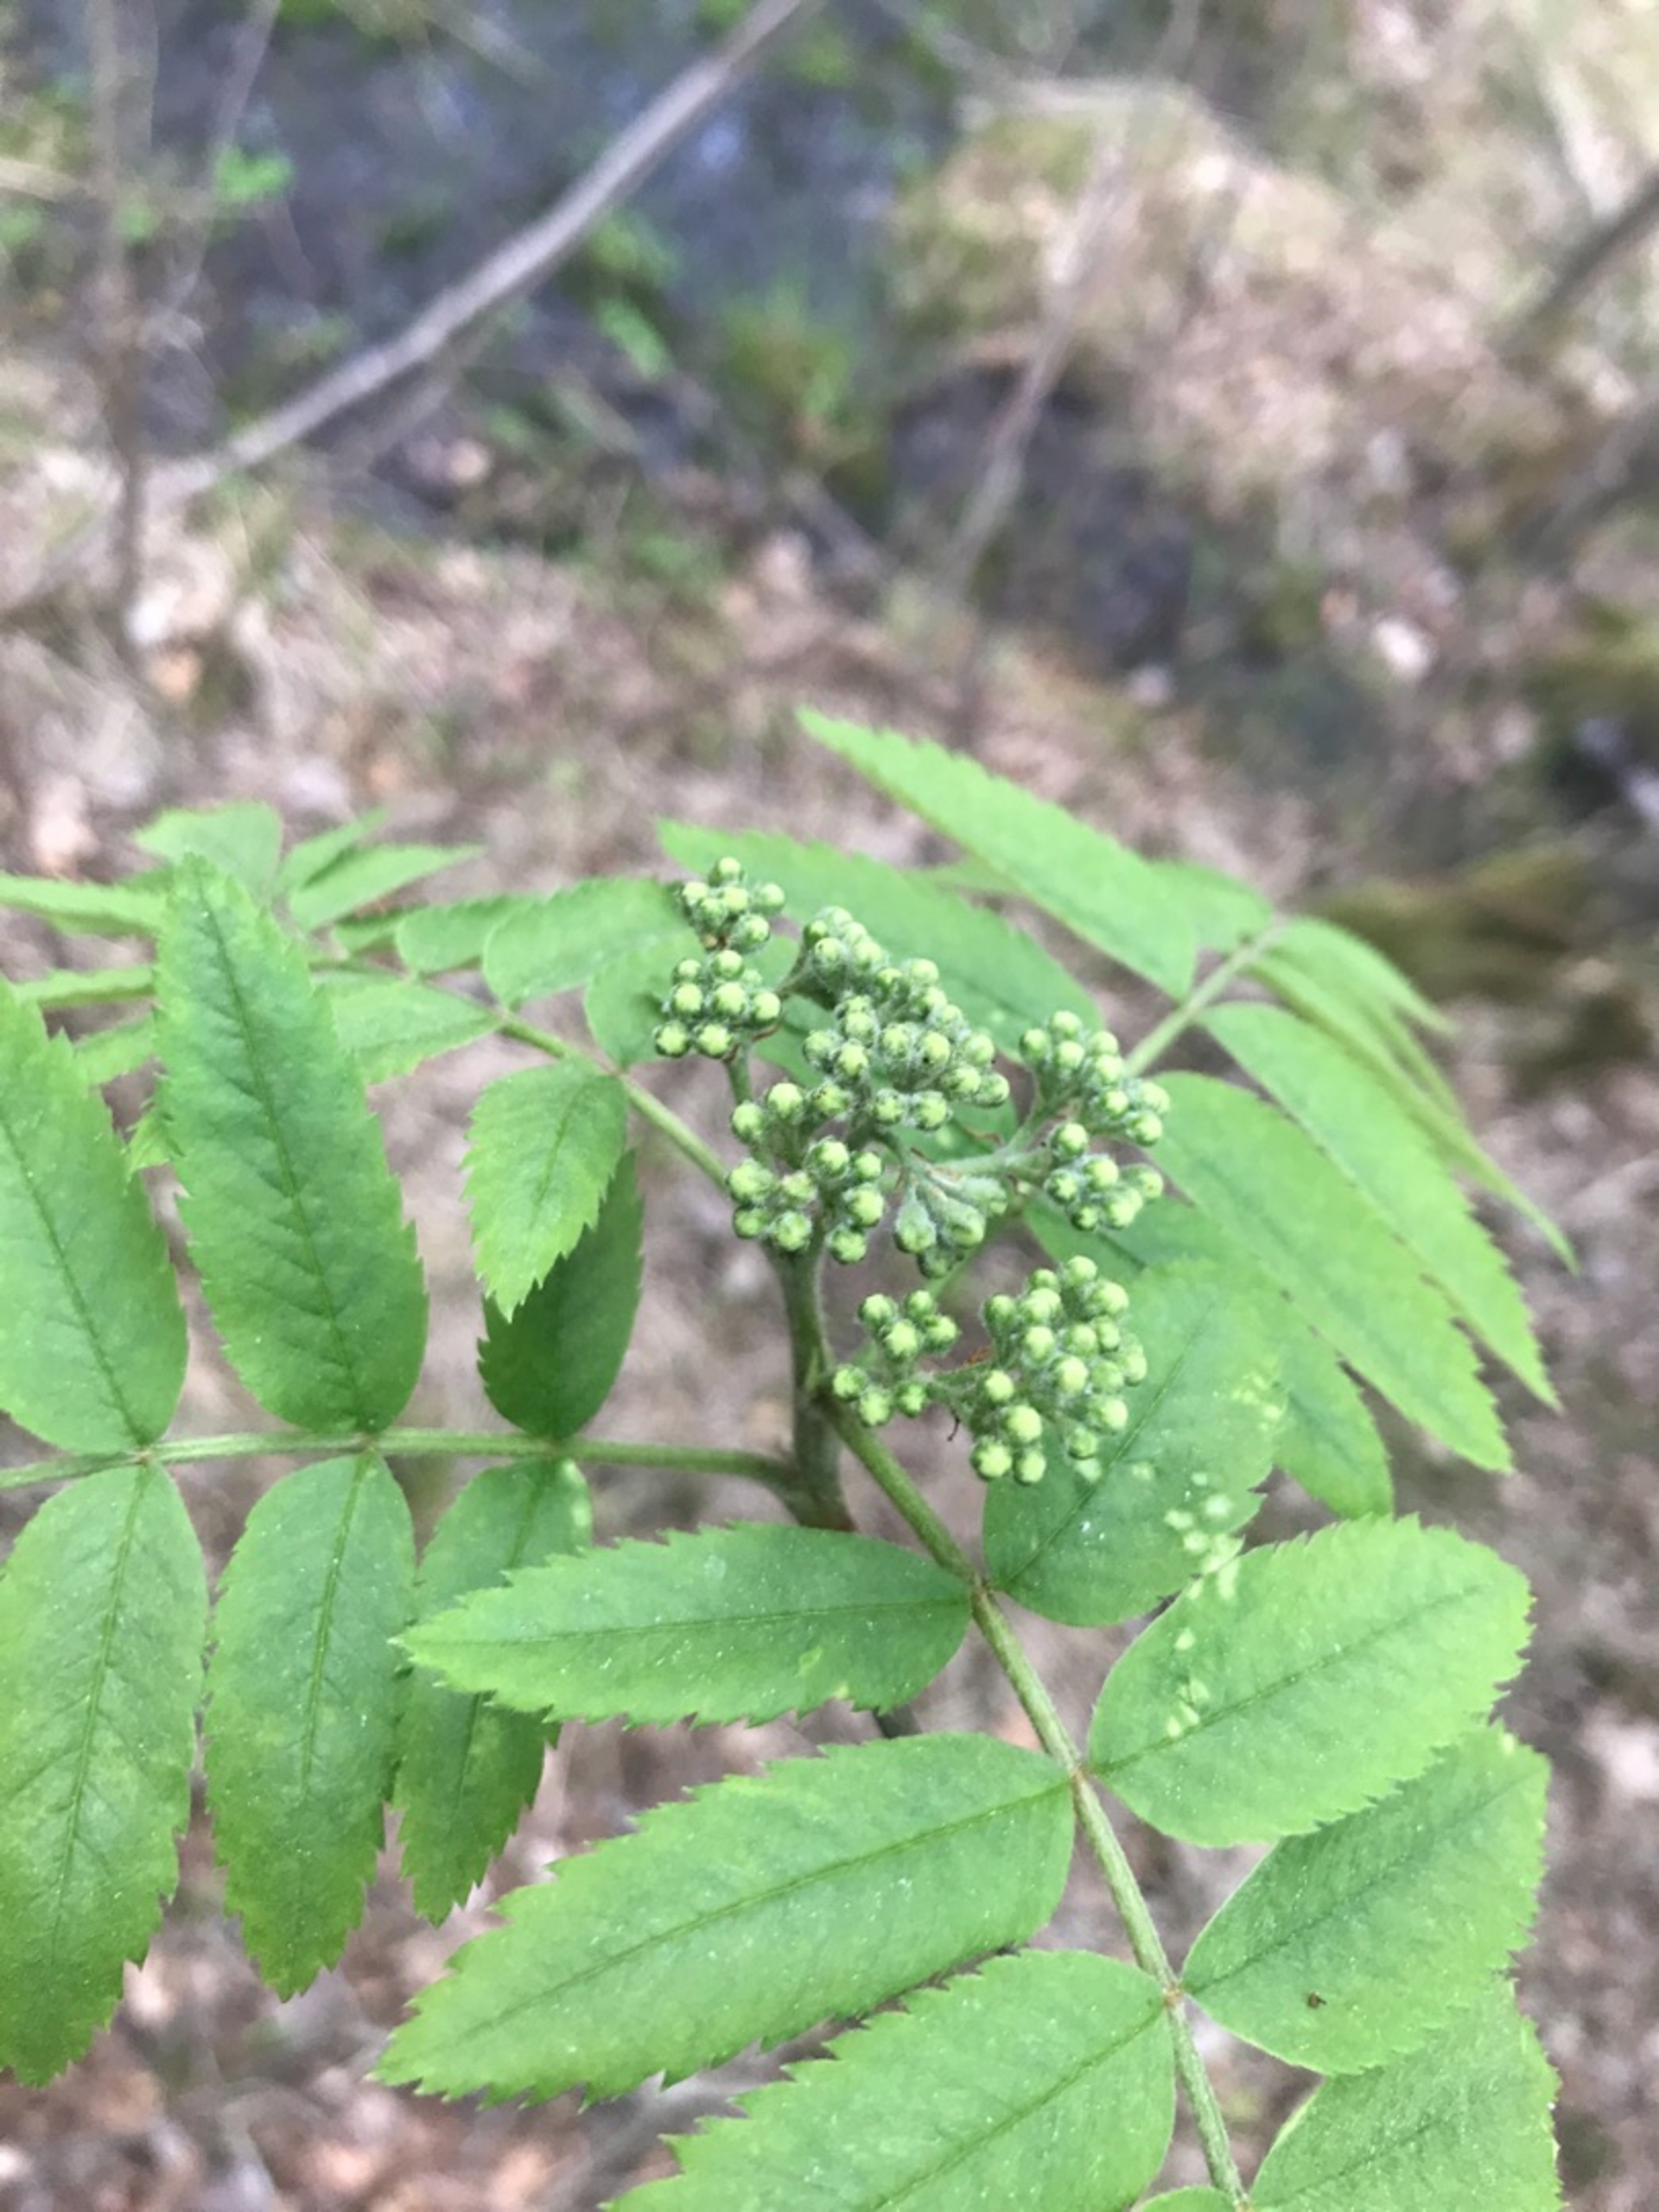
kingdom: Plantae
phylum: Tracheophyta
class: Magnoliopsida
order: Rosales
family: Rosaceae
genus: Sorbus
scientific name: Sorbus aucuparia
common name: Almindelig røn
